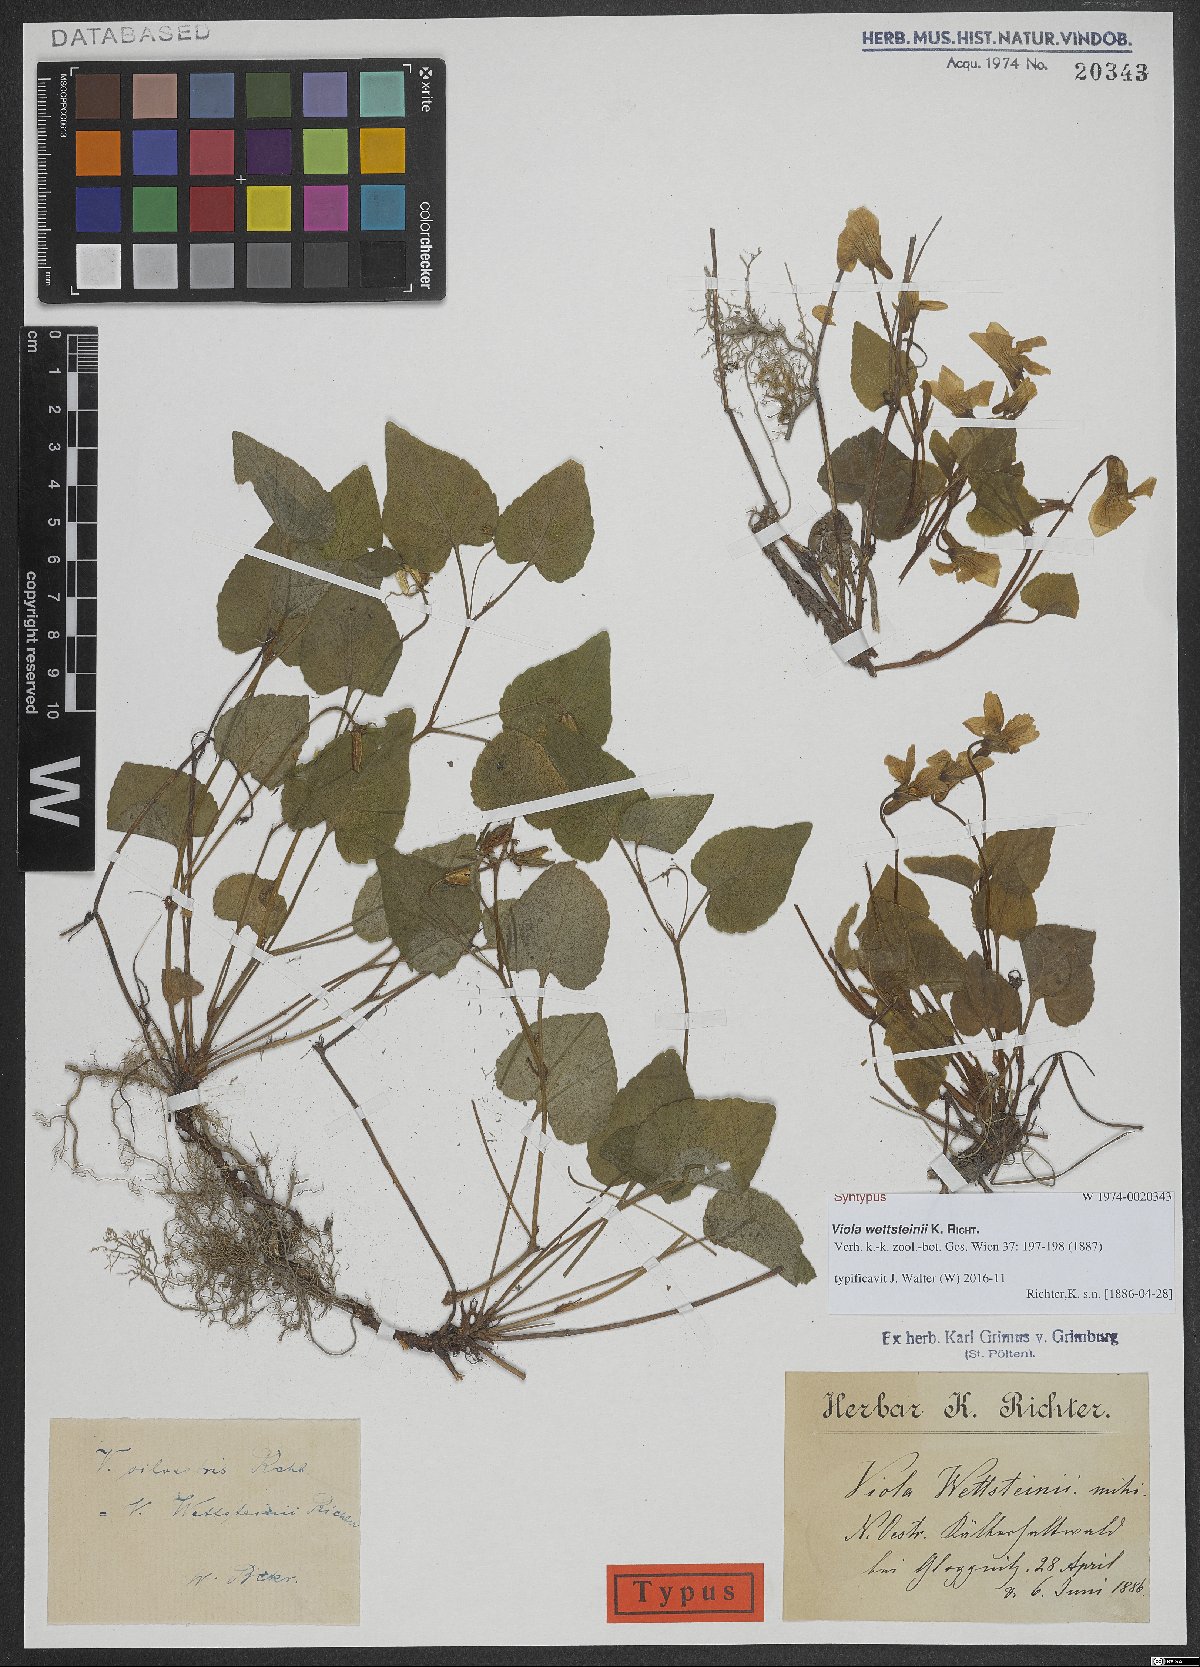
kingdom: Plantae
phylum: Tracheophyta
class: Magnoliopsida
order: Malpighiales
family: Violaceae
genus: Viola
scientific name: Viola bavarica
